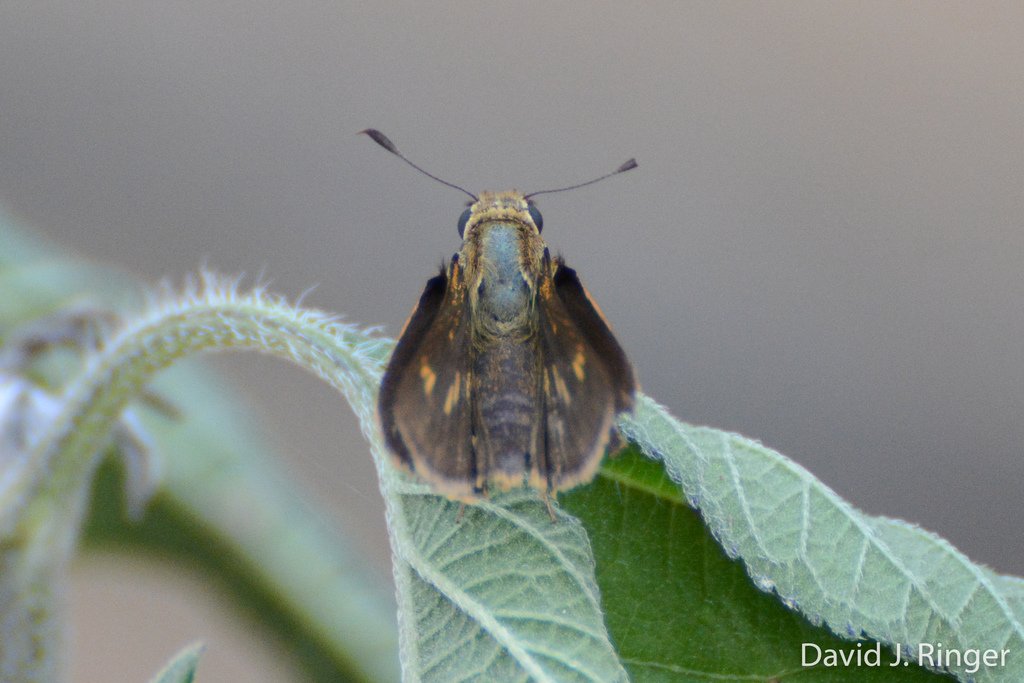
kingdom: Animalia
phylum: Arthropoda
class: Insecta
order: Lepidoptera
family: Hesperiidae
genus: Wallengrenia
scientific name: Wallengrenia otho
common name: Southern Broken-Dash
